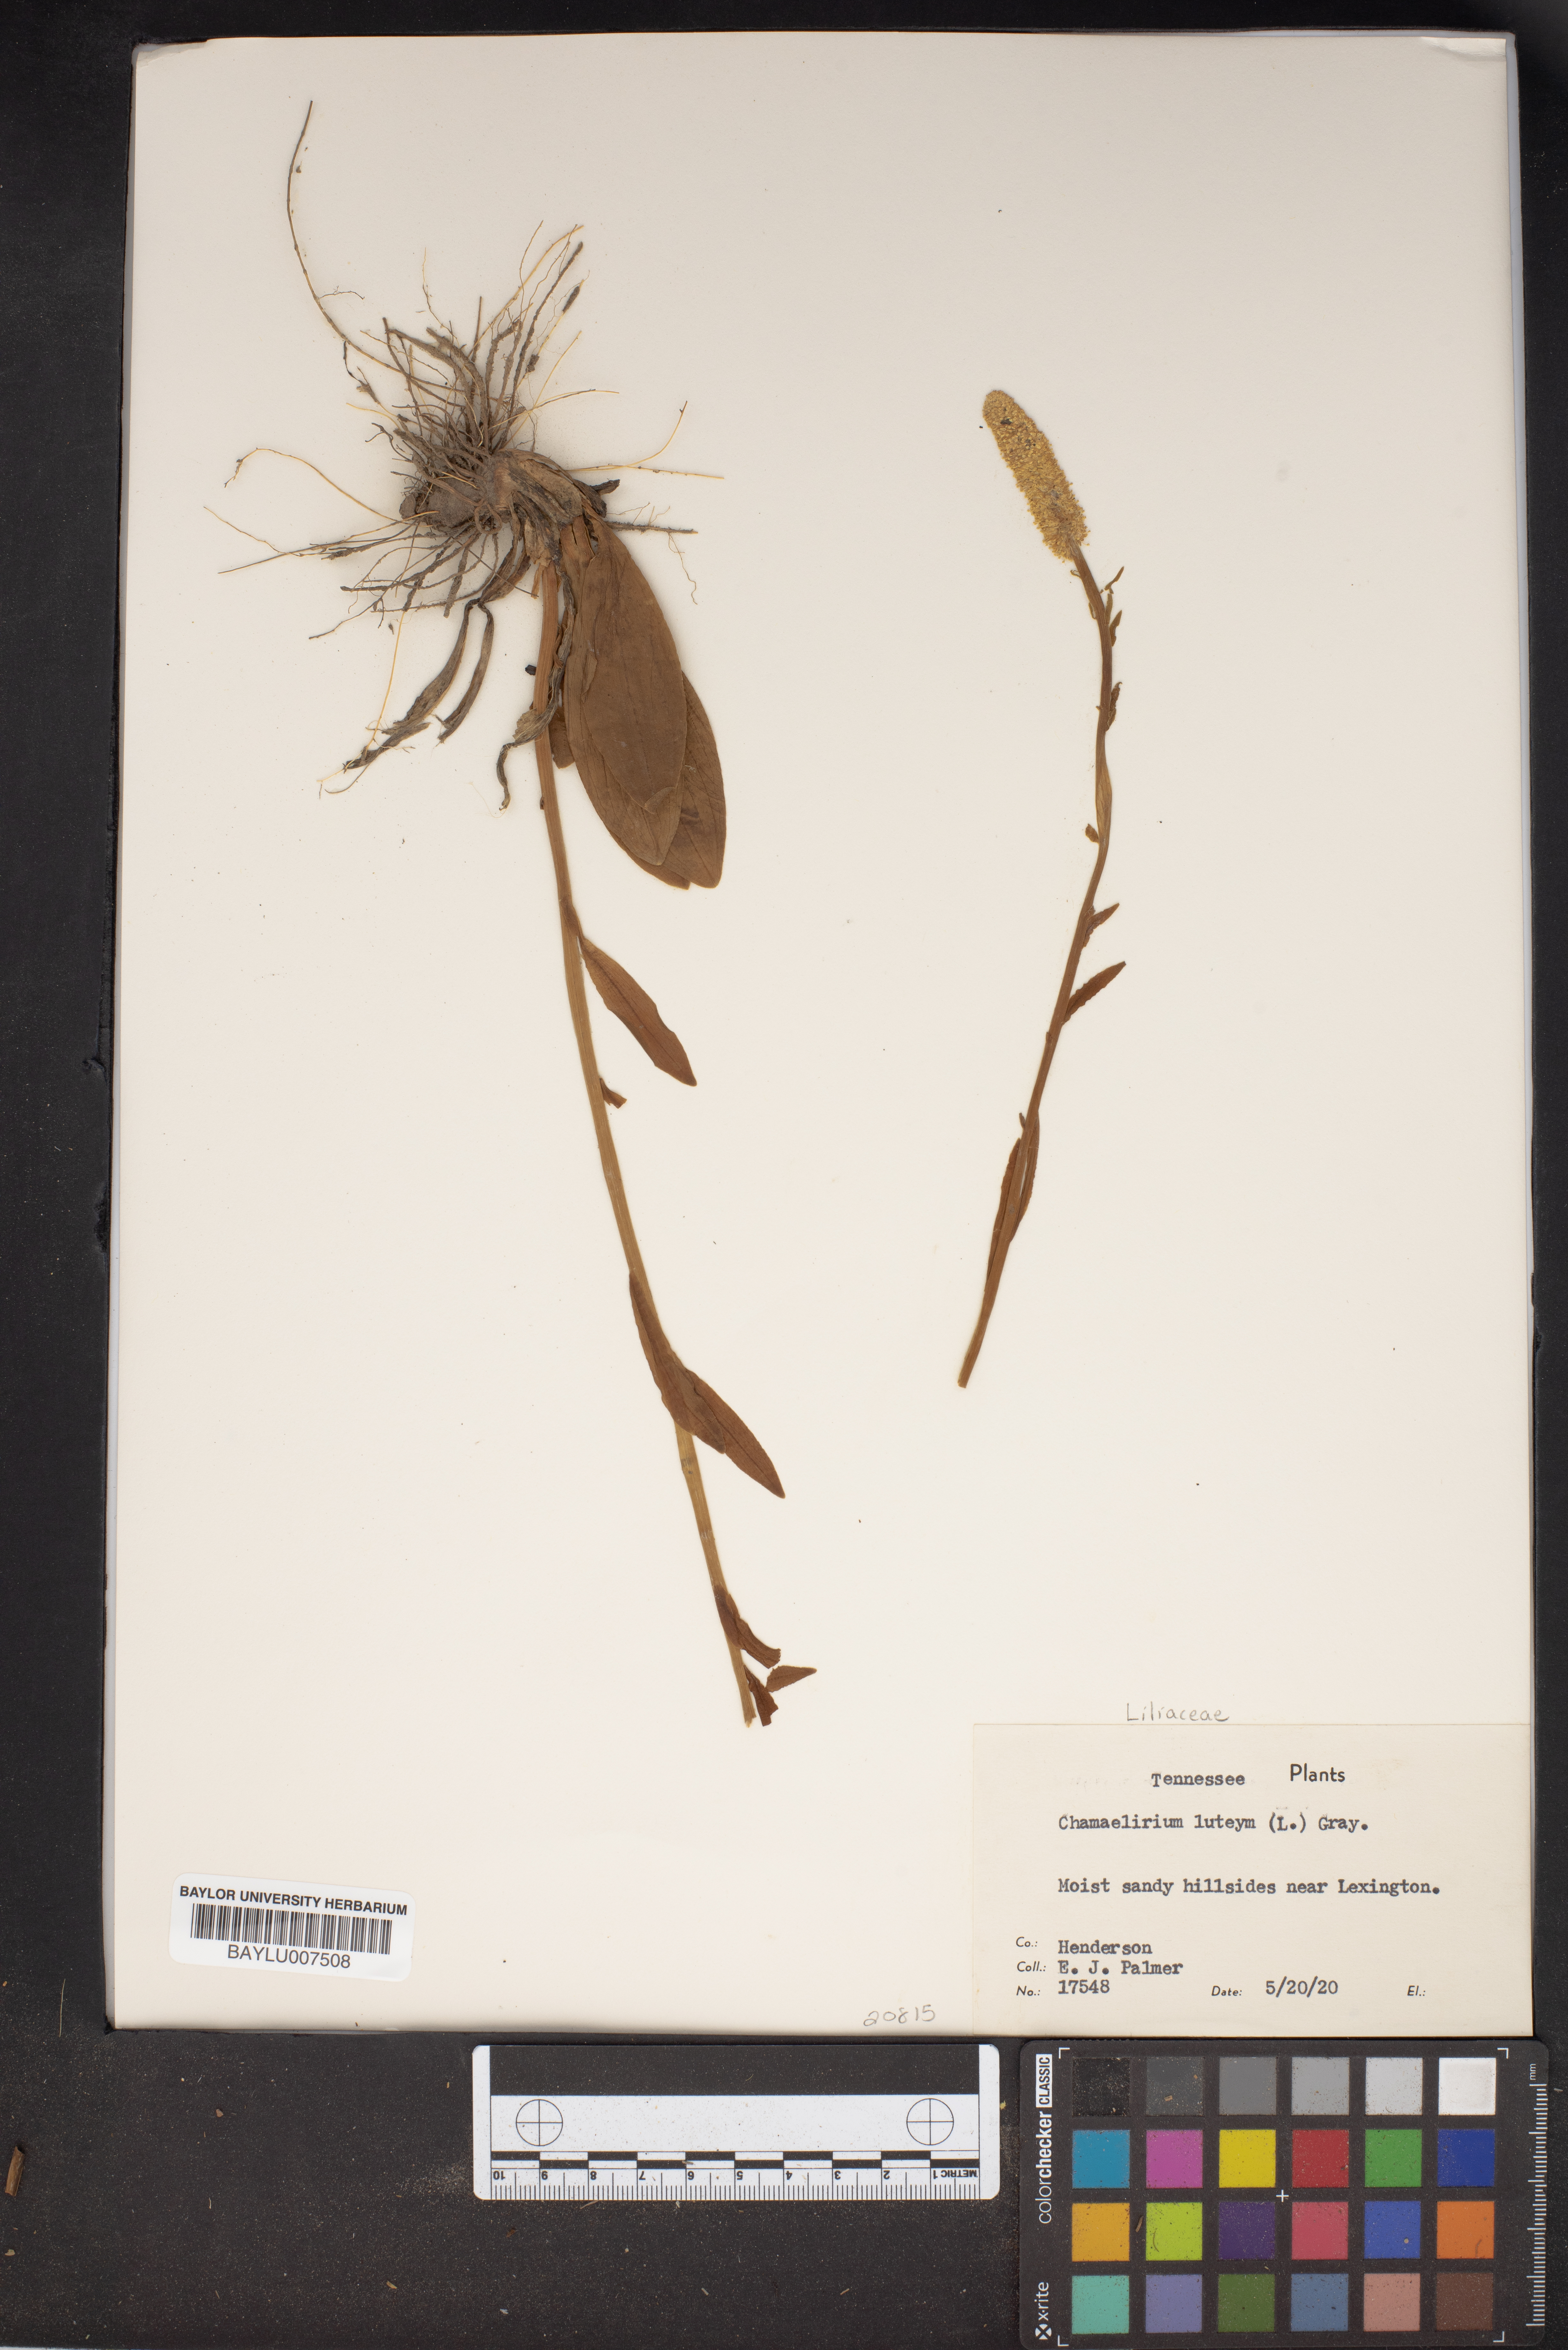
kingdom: Plantae
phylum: Tracheophyta
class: Liliopsida
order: Liliales
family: Melanthiaceae
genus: Chamaelirium
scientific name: Chamaelirium luteum
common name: Fairy-wand
